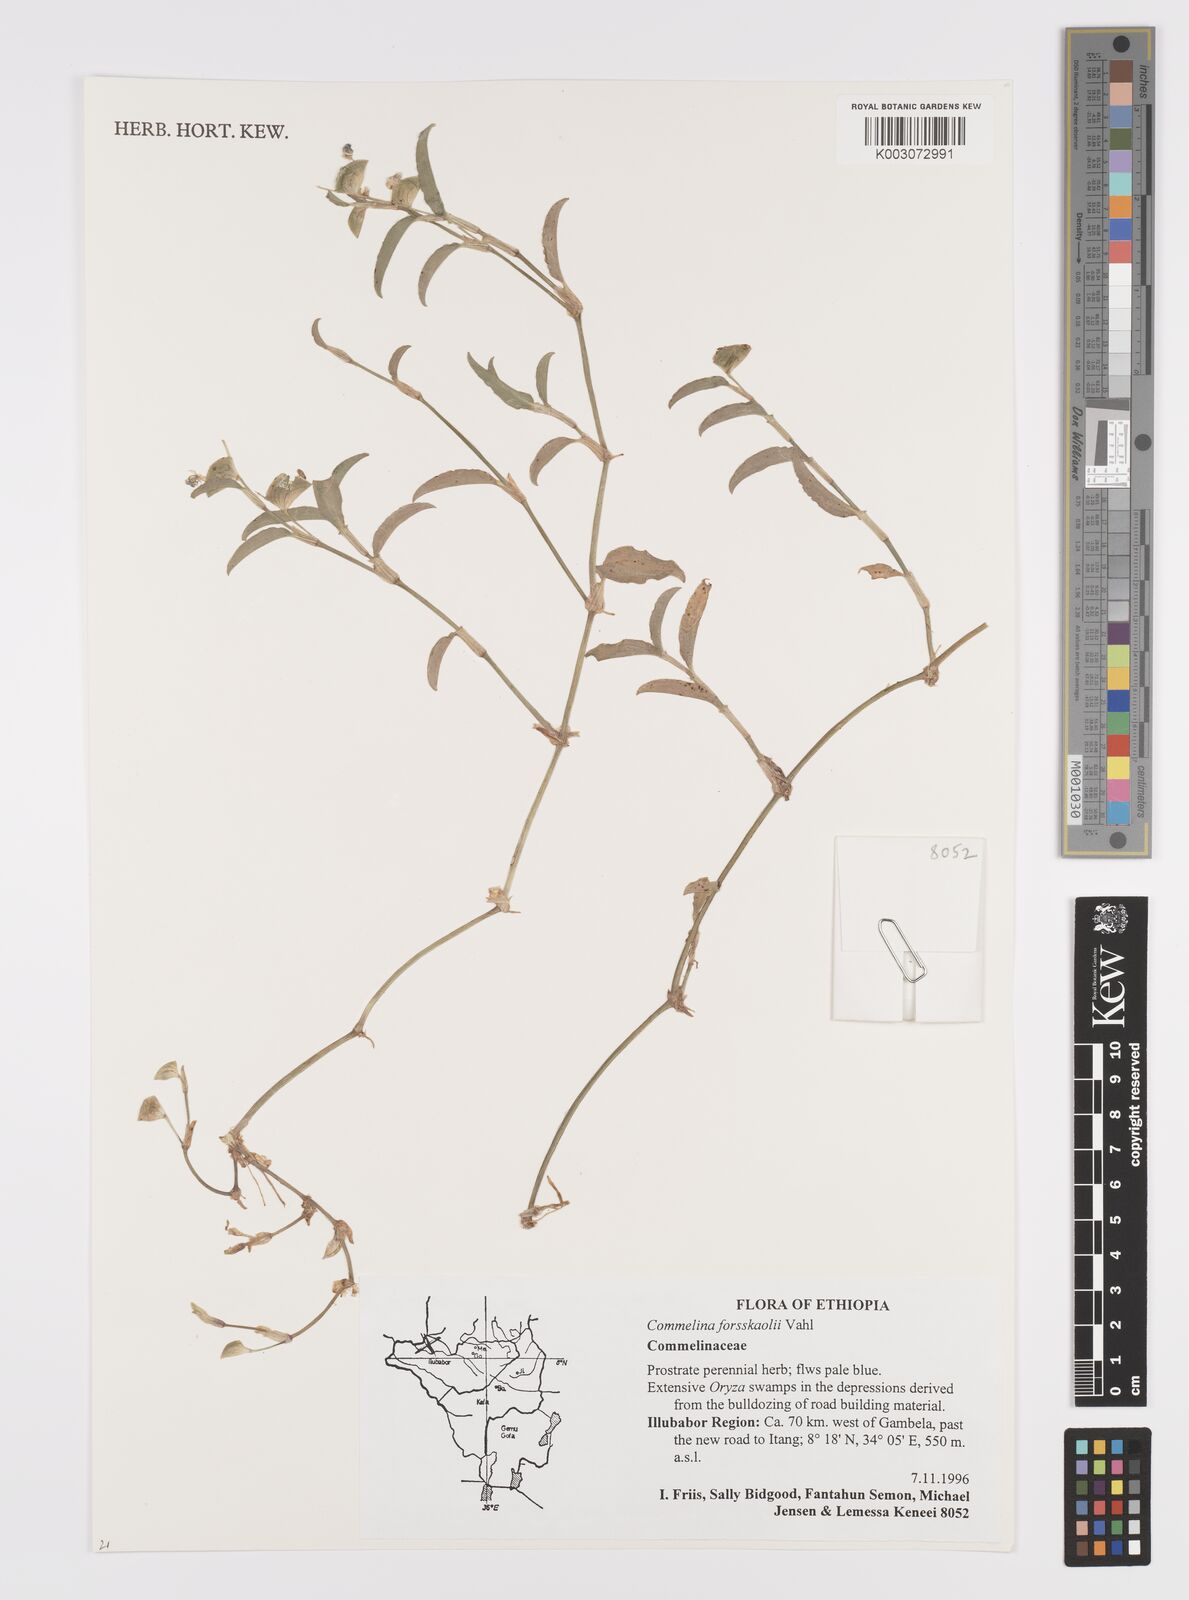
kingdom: Plantae
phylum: Tracheophyta
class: Liliopsida
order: Commelinales
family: Commelinaceae
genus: Commelina
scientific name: Commelina forskaolii
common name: Rat's ear
